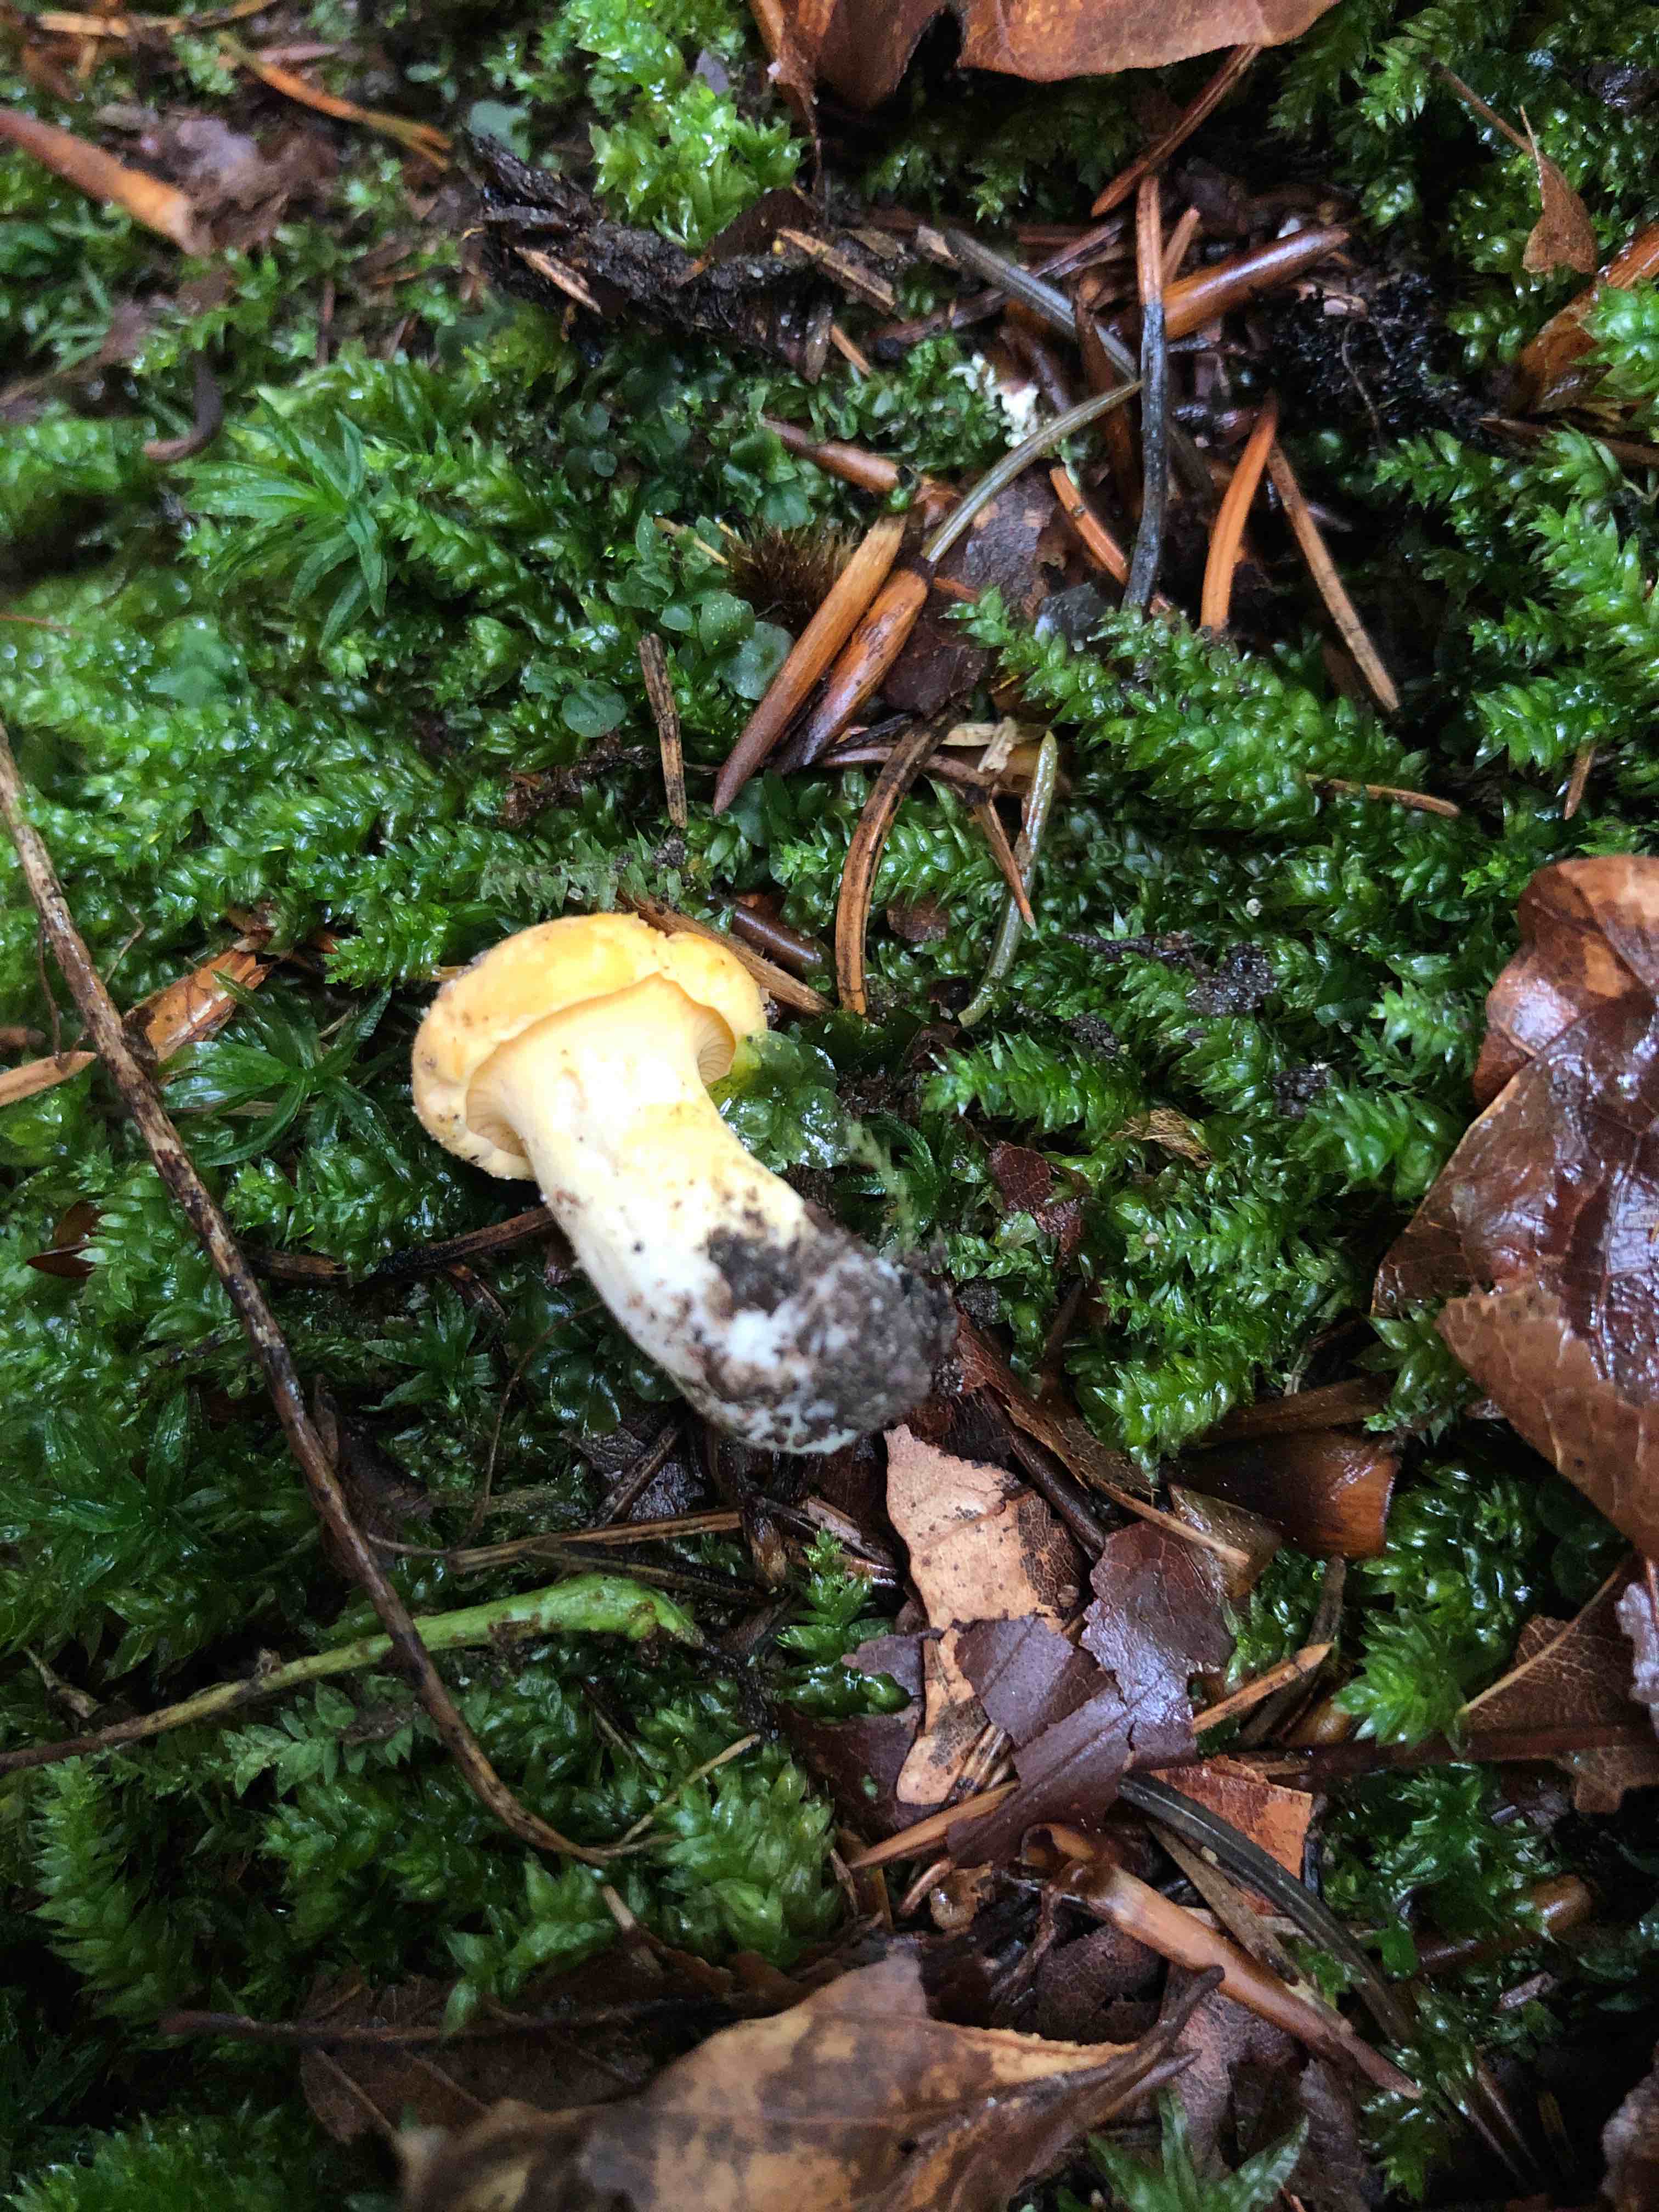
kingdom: Fungi
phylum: Basidiomycota
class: Agaricomycetes
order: Cantharellales
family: Hydnaceae
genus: Cantharellus
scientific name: Cantharellus
